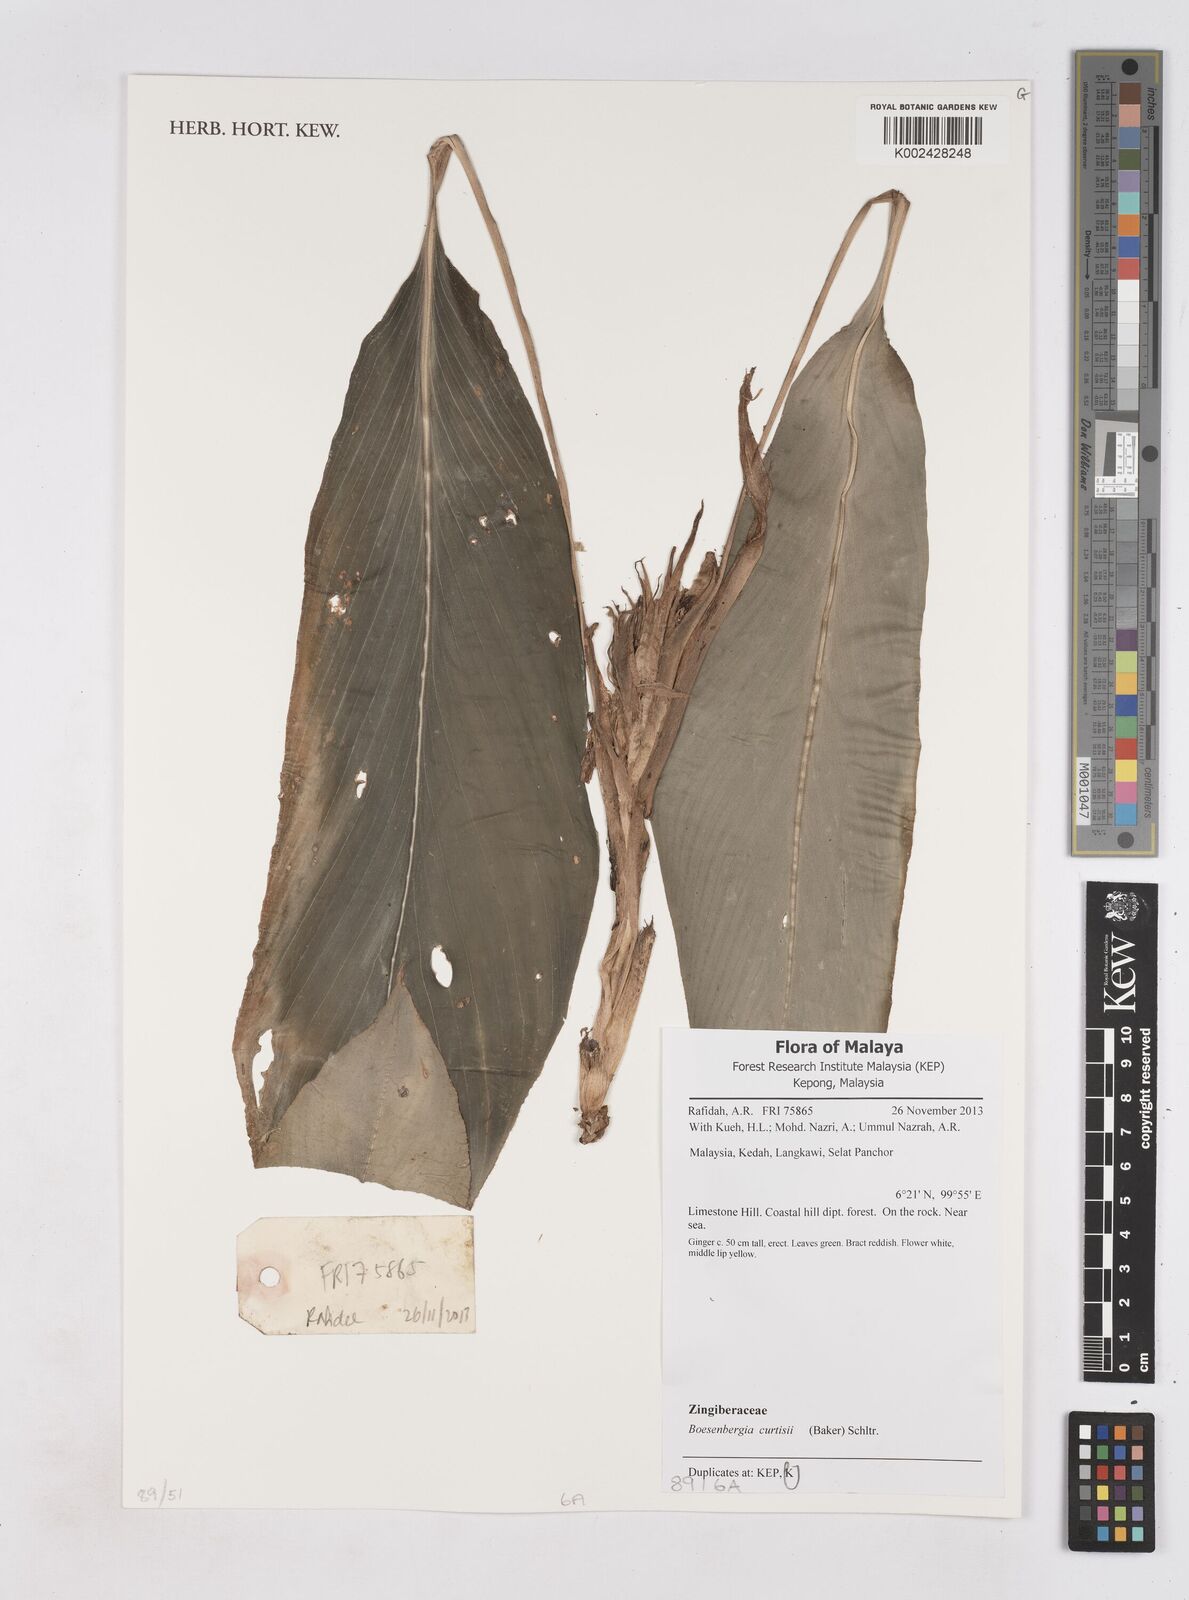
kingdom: Plantae
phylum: Tracheophyta
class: Liliopsida
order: Zingiberales
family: Zingiberaceae
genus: Boesenbergia
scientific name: Boesenbergia curtisii
